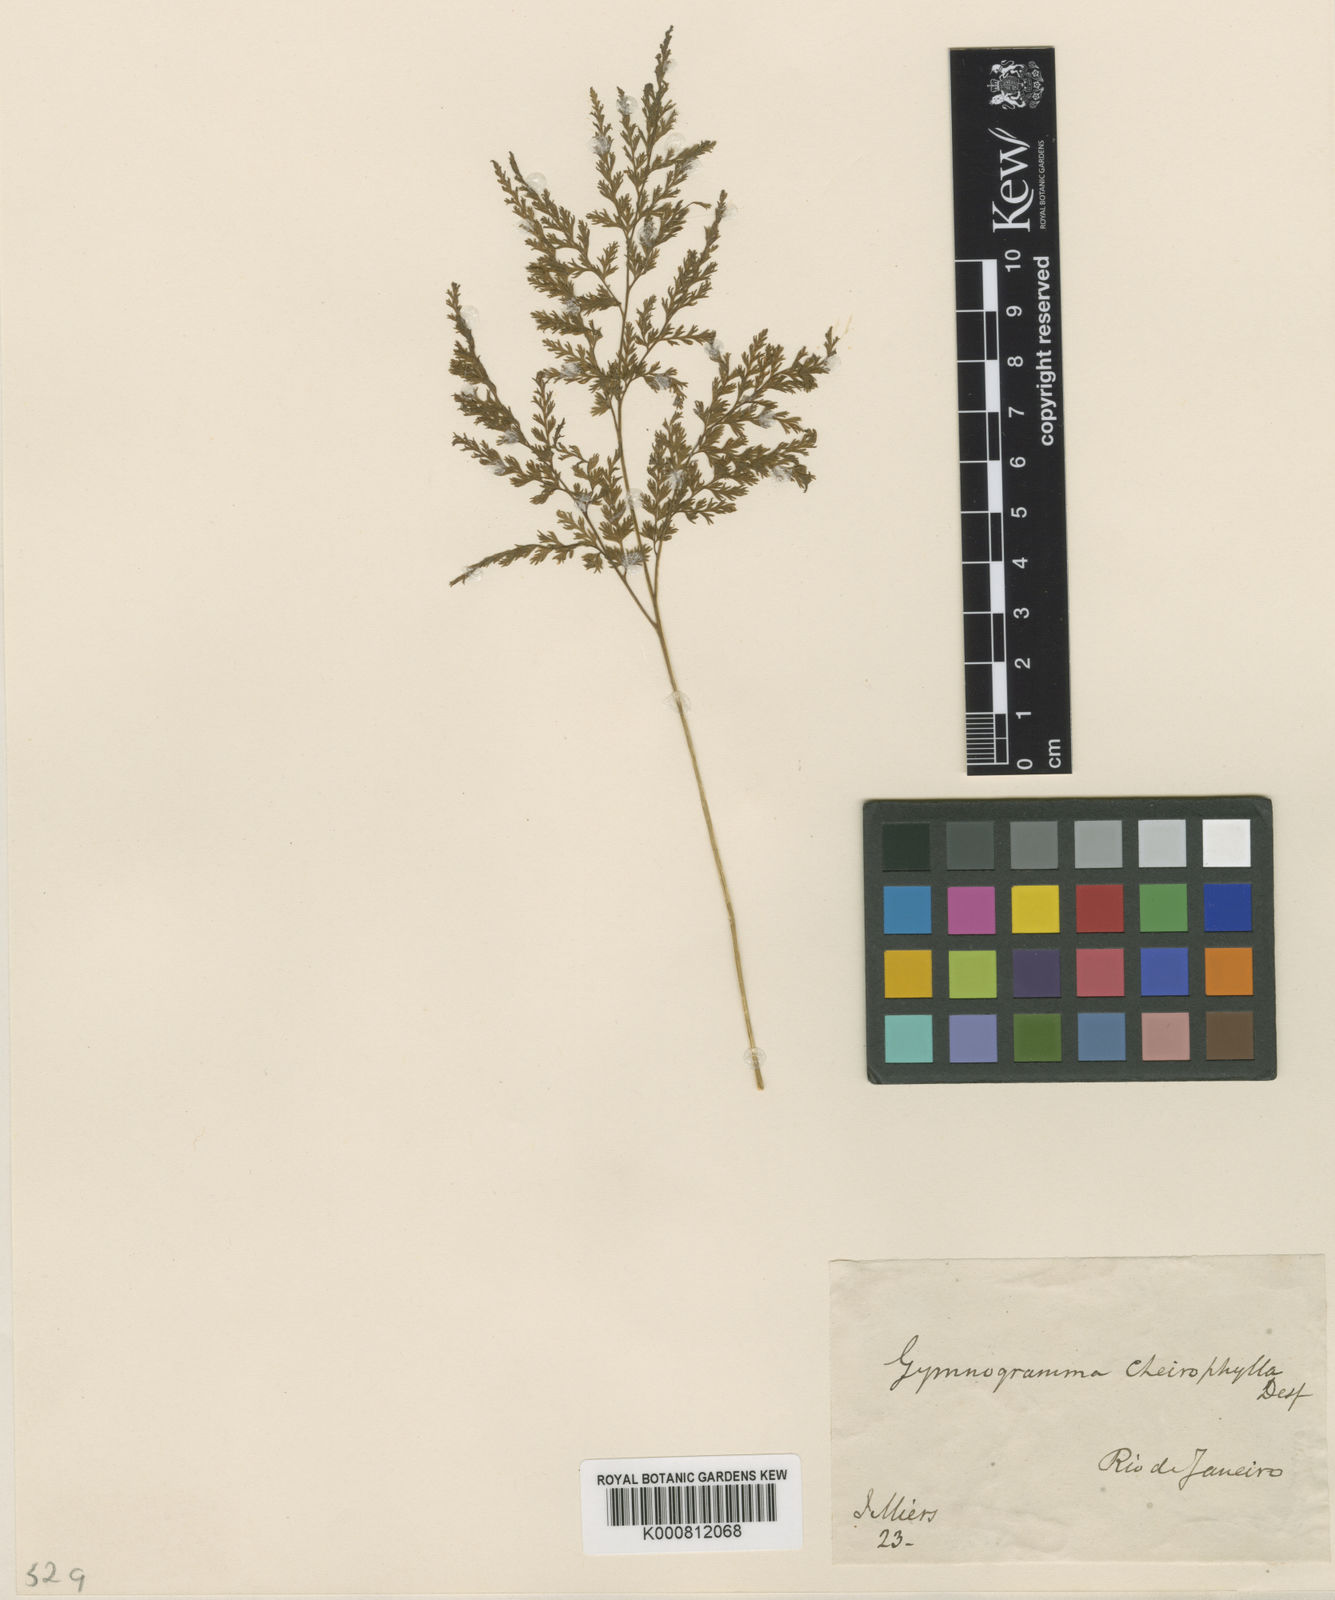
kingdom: Plantae
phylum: Tracheophyta
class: Polypodiopsida
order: Polypodiales
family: Pteridaceae
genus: Gastoniella
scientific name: Gastoniella chaerophylla
